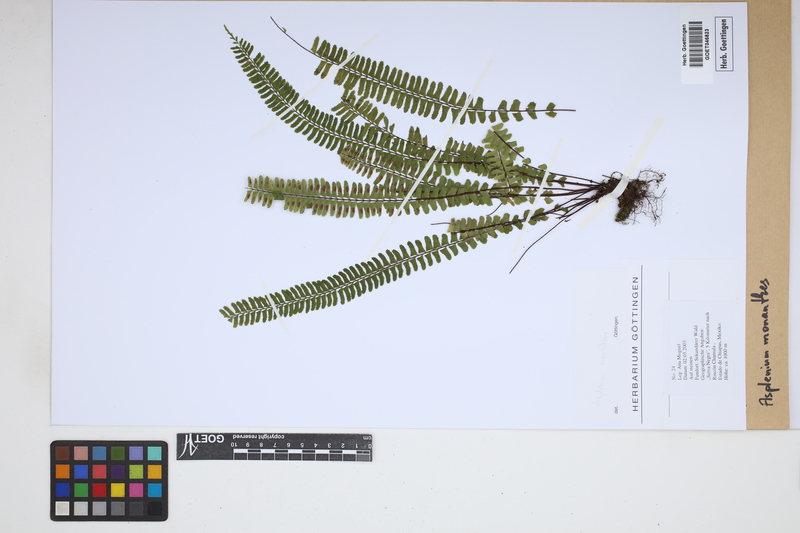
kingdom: Plantae
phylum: Tracheophyta
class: Polypodiopsida
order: Polypodiales
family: Aspleniaceae
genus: Asplenium
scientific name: Asplenium monanthes
